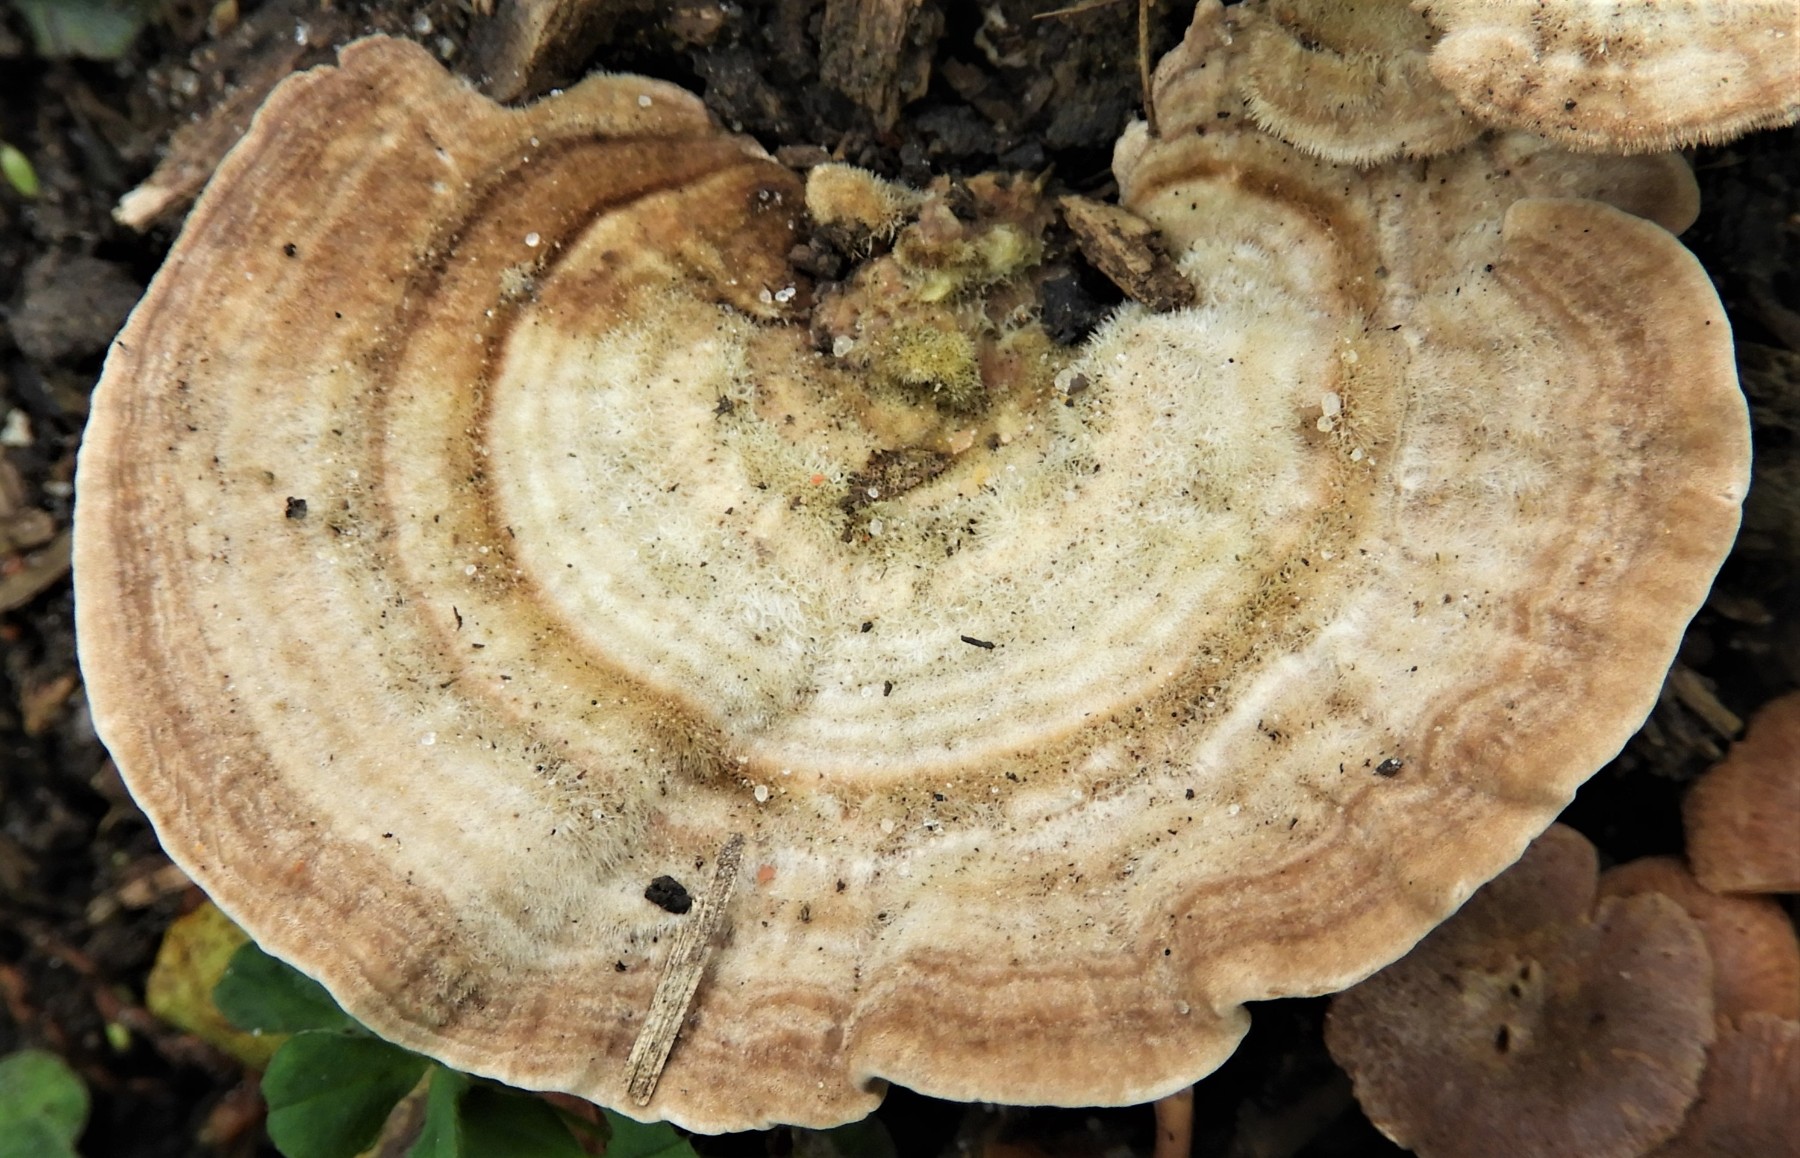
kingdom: Fungi
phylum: Basidiomycota
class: Agaricomycetes
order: Polyporales
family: Polyporaceae
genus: Lenzites
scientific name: Lenzites betulinus
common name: birke-læderporesvamp
